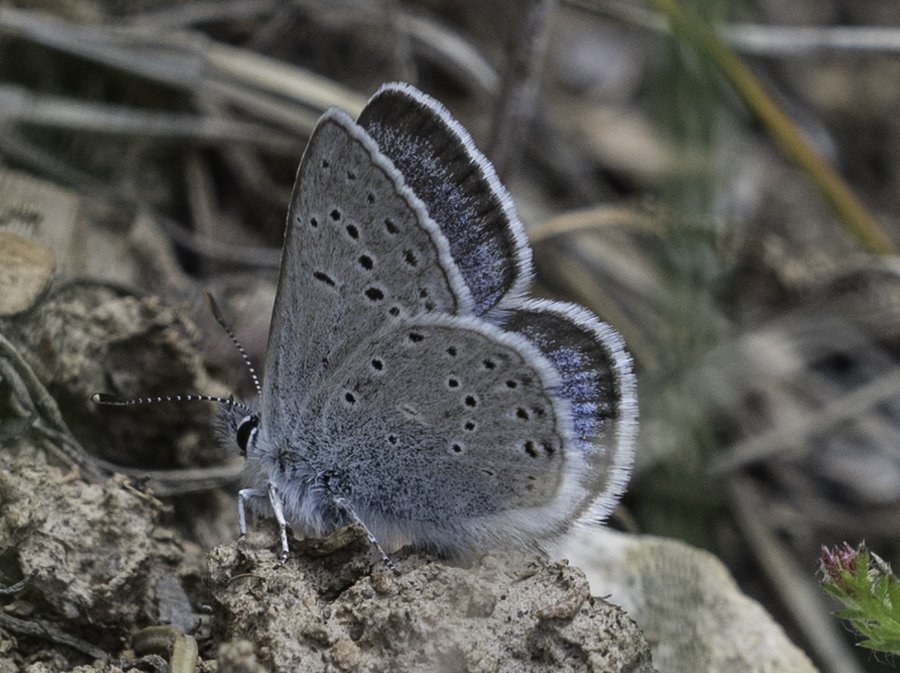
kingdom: Animalia
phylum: Arthropoda
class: Insecta
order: Lepidoptera
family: Lycaenidae
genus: Plebejus
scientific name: Plebejus saepiolus
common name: Greenish Blue
